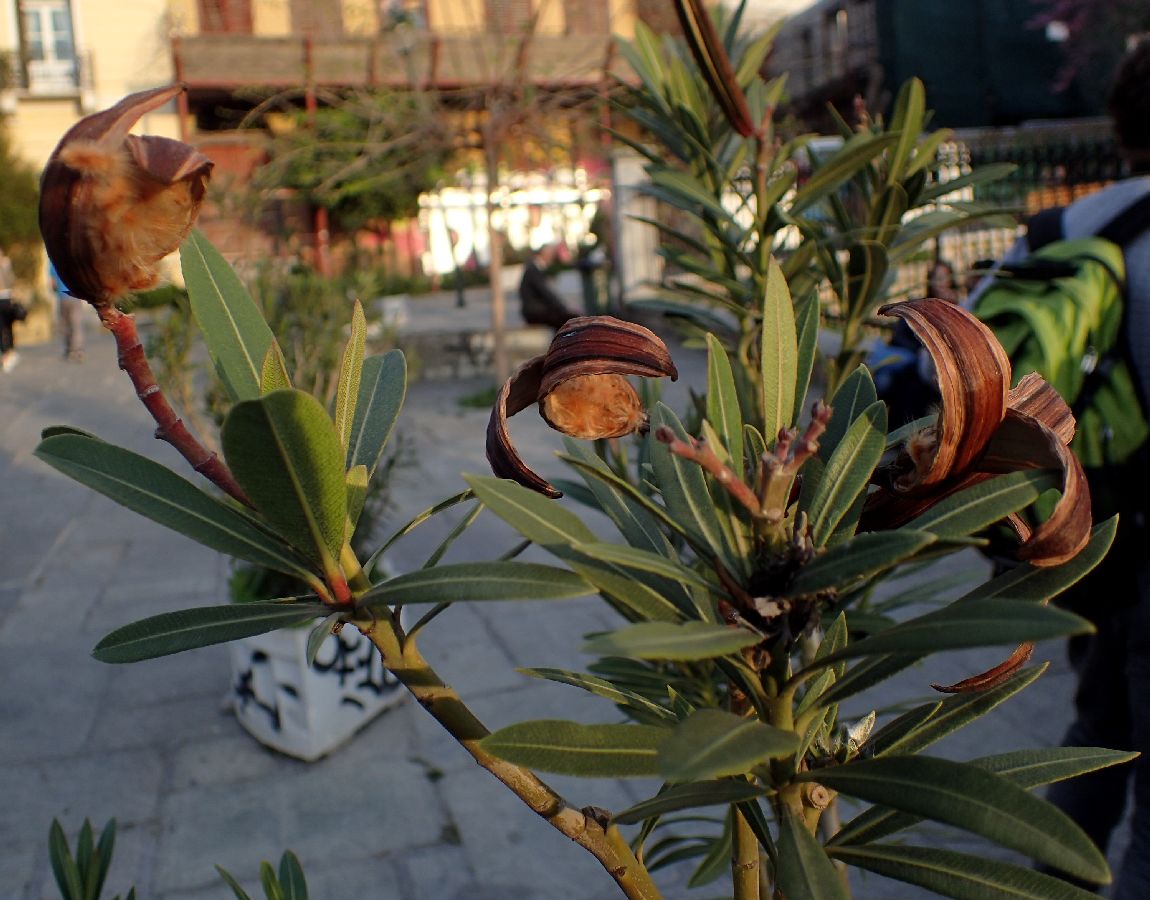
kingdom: Plantae
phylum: Tracheophyta
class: Magnoliopsida
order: Gentianales
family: Apocynaceae
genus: Nerium
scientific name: Nerium oleander
